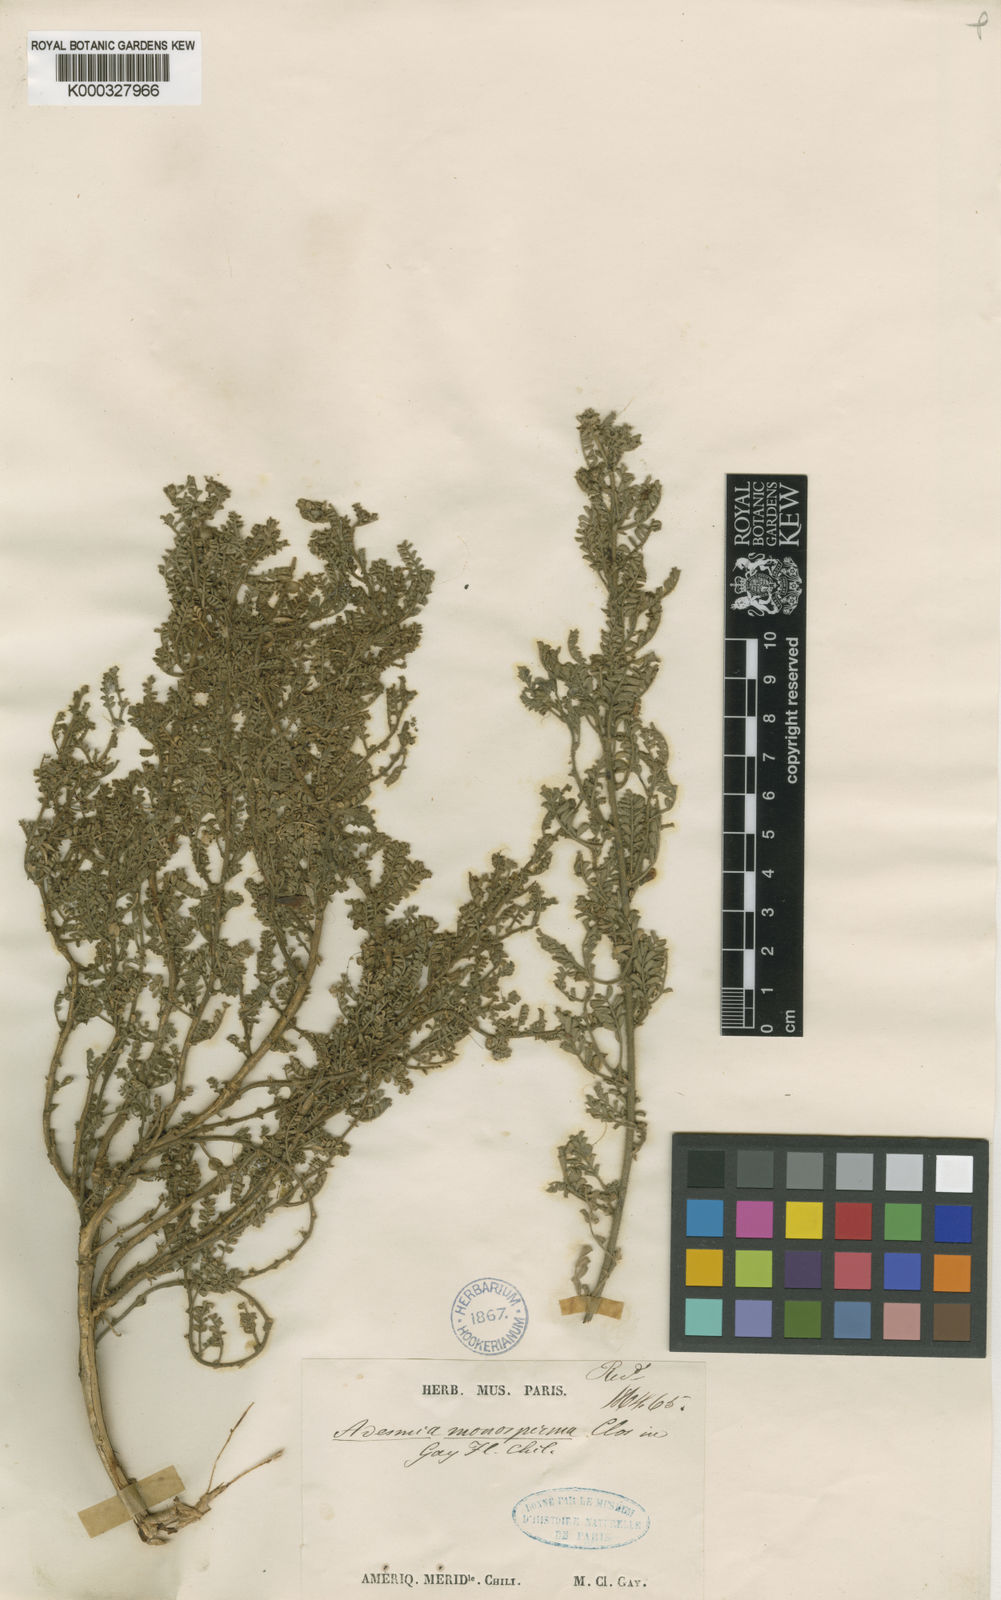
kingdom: Plantae
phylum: Tracheophyta
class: Magnoliopsida
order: Fabales
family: Fabaceae
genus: Adesmia
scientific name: Adesmia monosperma
